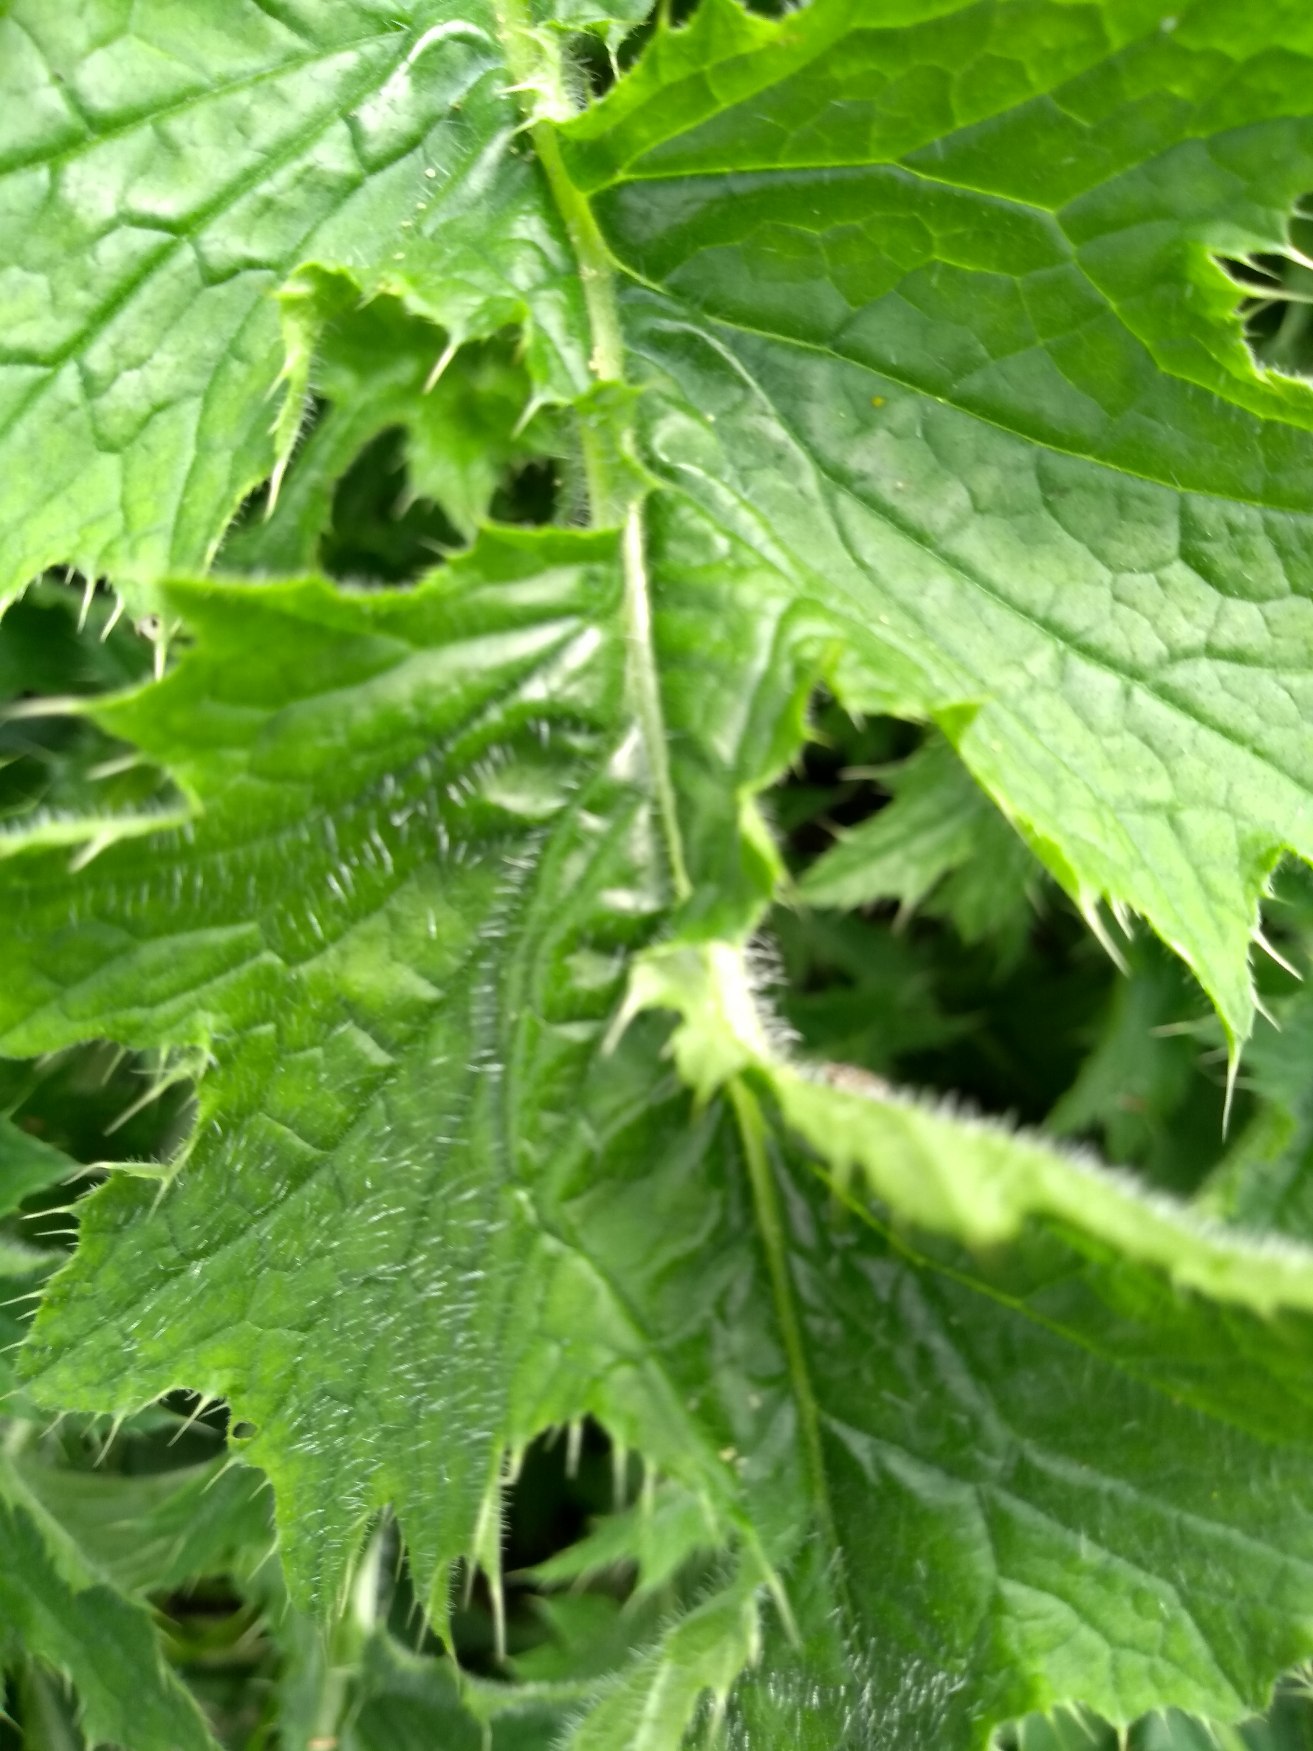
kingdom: Plantae
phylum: Tracheophyta
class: Magnoliopsida
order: Asterales
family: Asteraceae
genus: Cirsium
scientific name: Cirsium palustre
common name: Kær-tidsel
